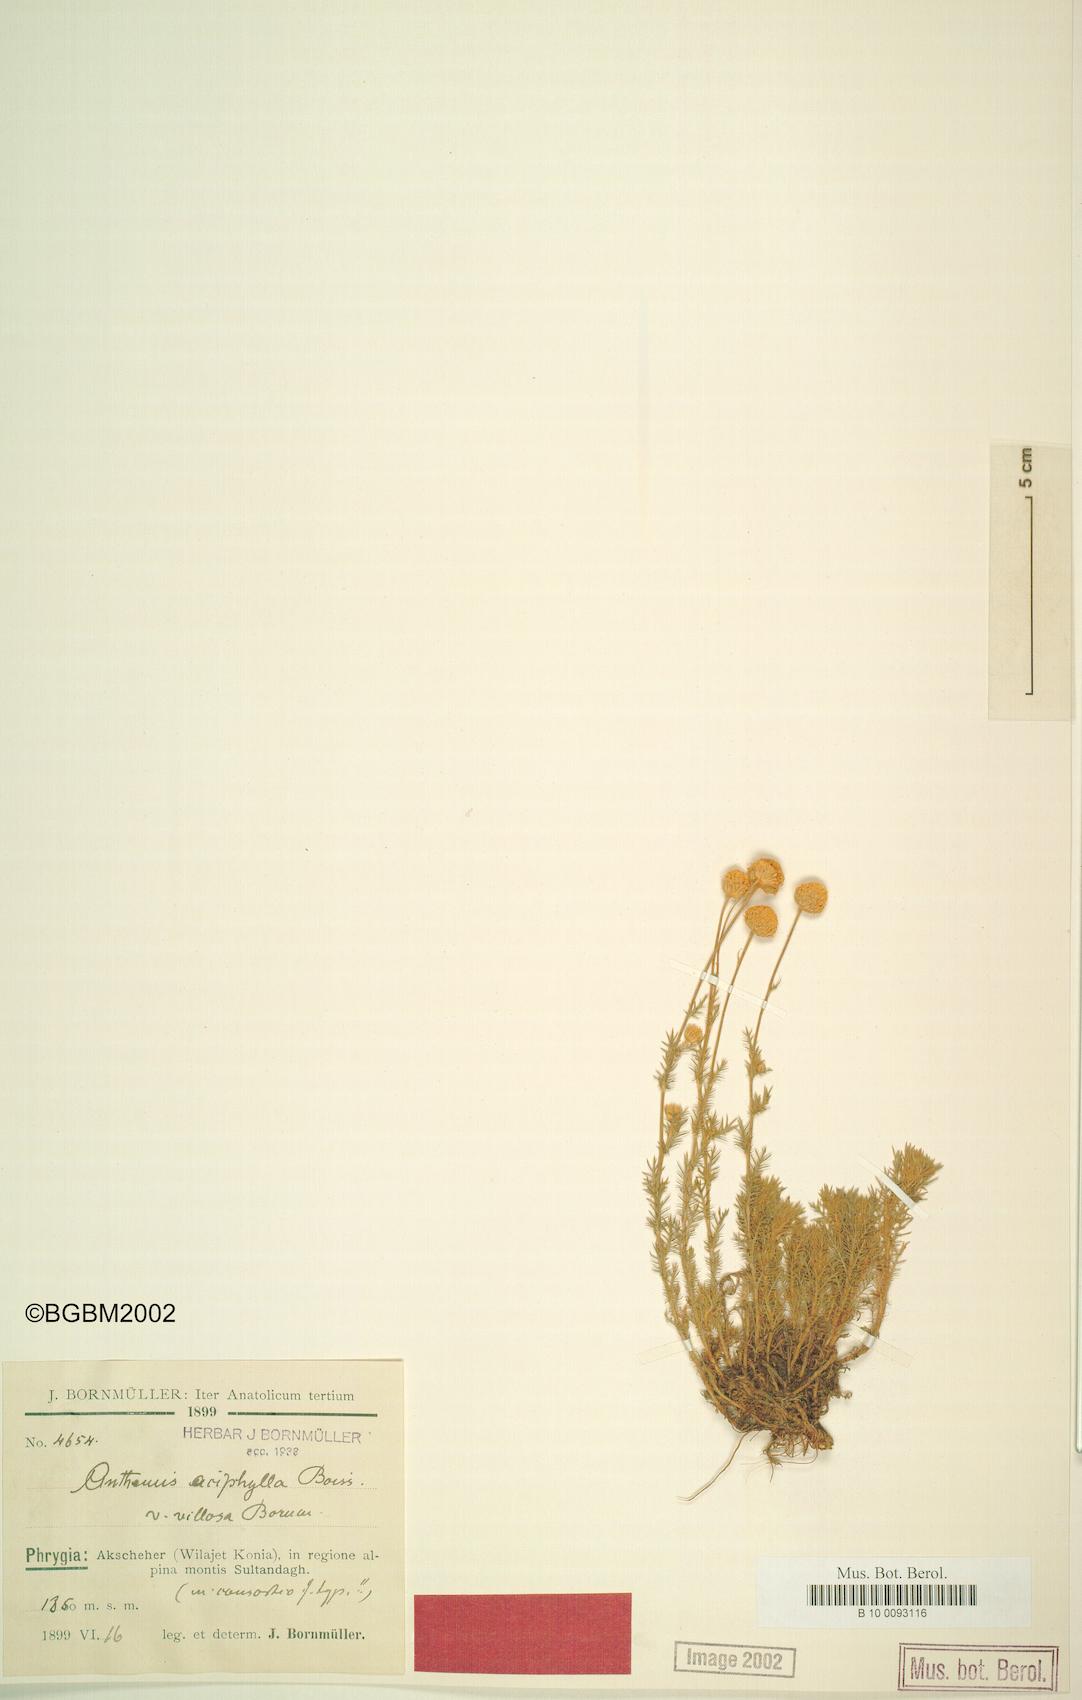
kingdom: Plantae
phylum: Tracheophyta
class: Magnoliopsida
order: Asterales
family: Asteraceae
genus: Anthemis
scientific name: Anthemis aciphylla
